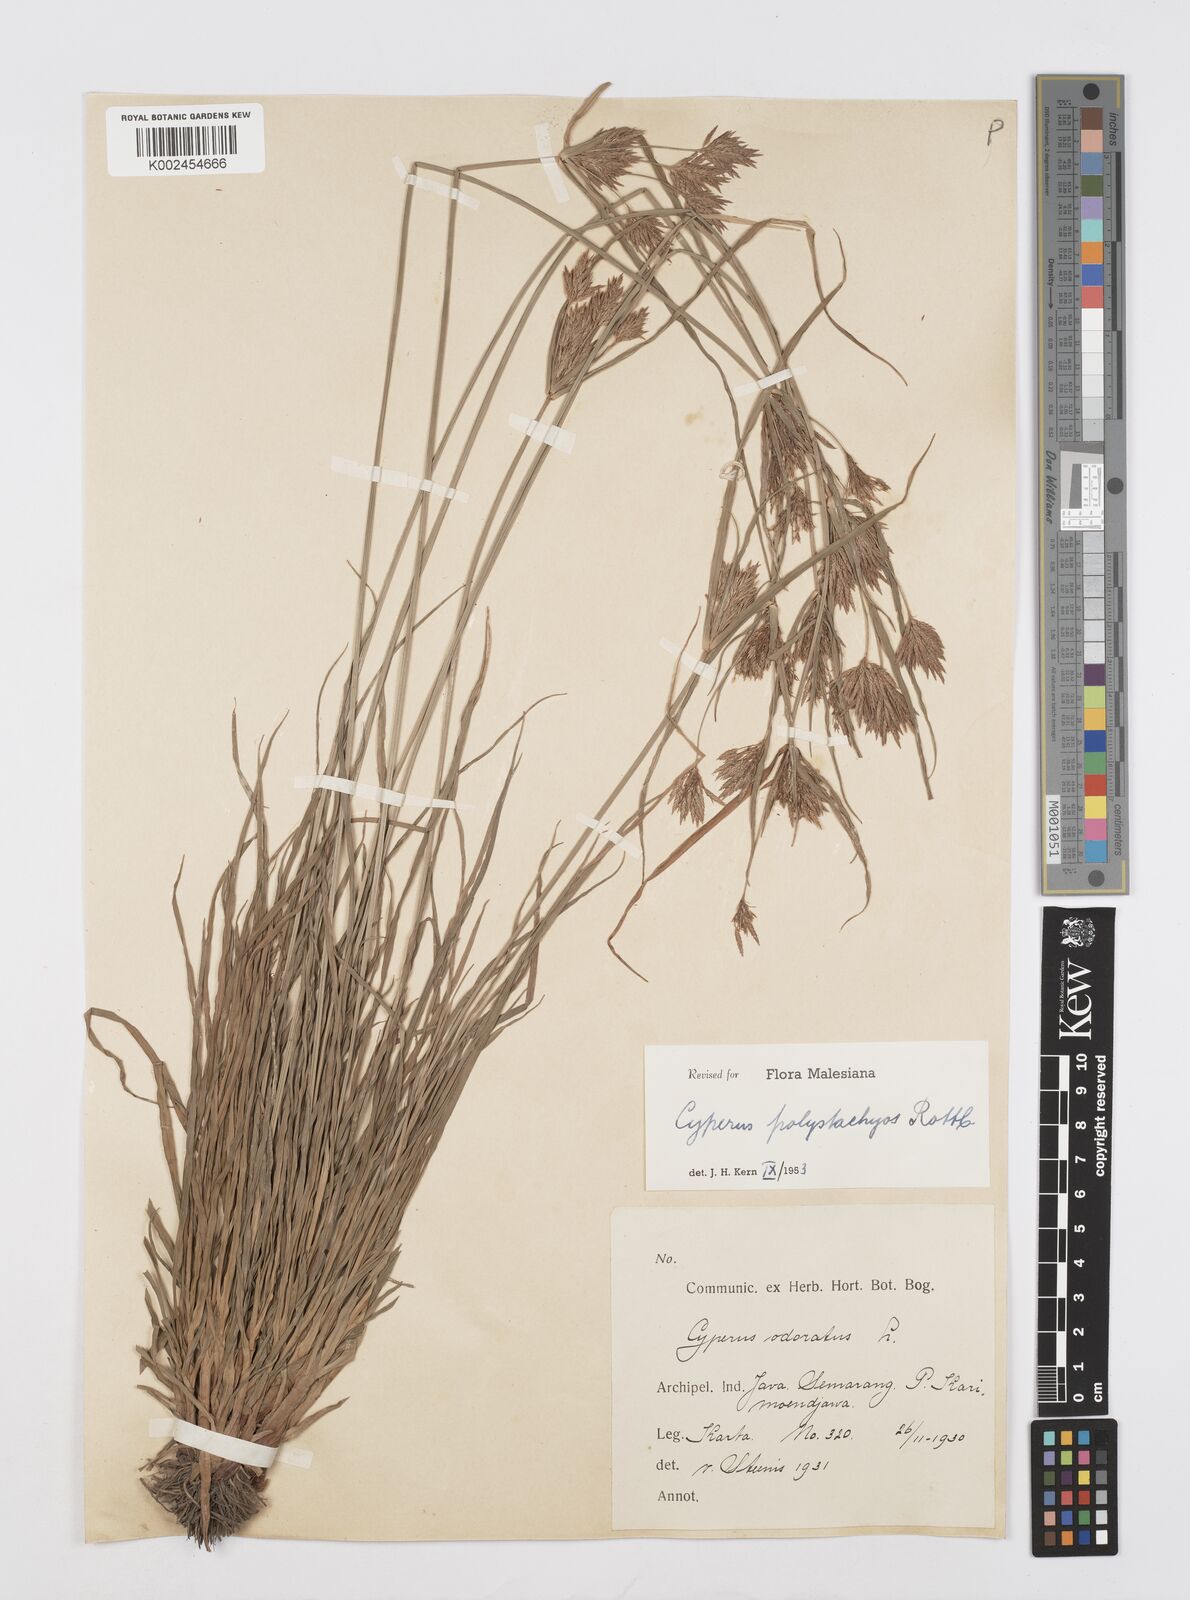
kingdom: Plantae
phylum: Tracheophyta
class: Liliopsida
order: Poales
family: Cyperaceae
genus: Cyperus
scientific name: Cyperus polystachyos
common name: Bunchy flat sedge
